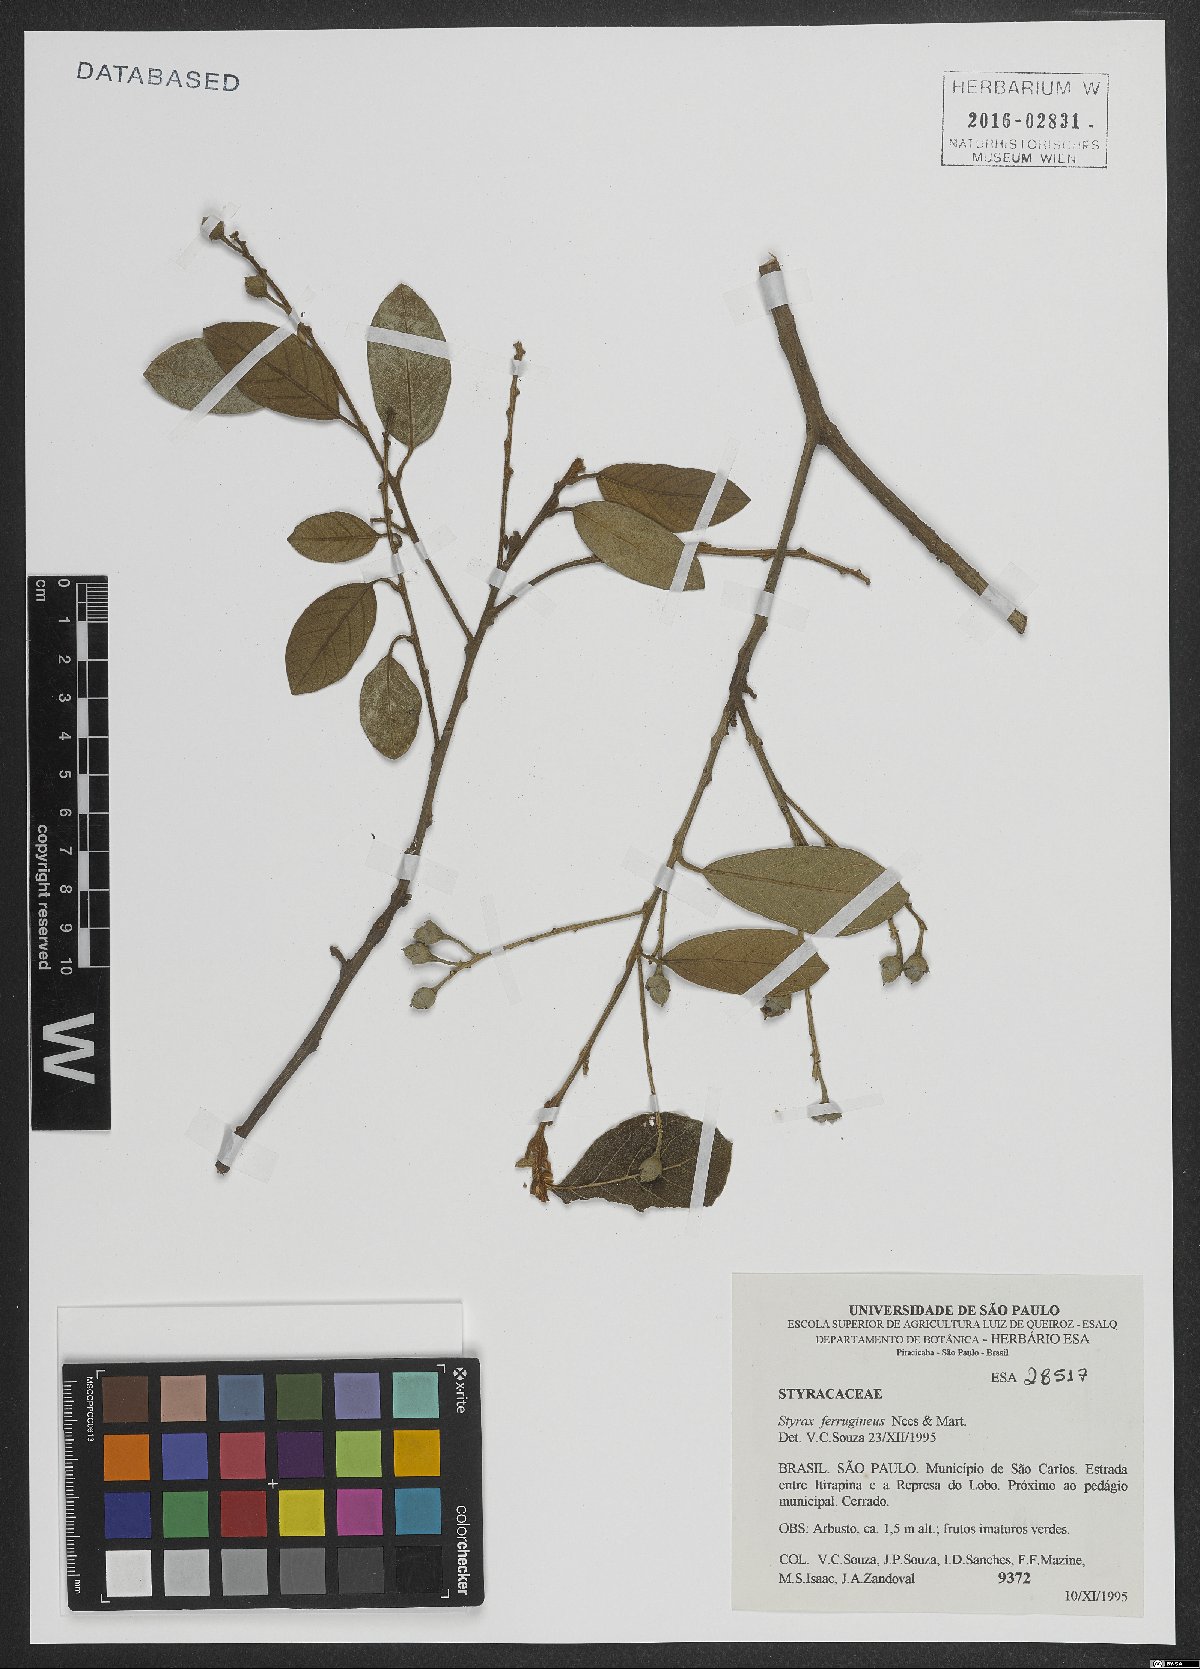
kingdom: Plantae
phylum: Tracheophyta
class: Magnoliopsida
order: Ericales
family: Styracaceae
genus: Styrax
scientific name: Styrax ferrugineus
